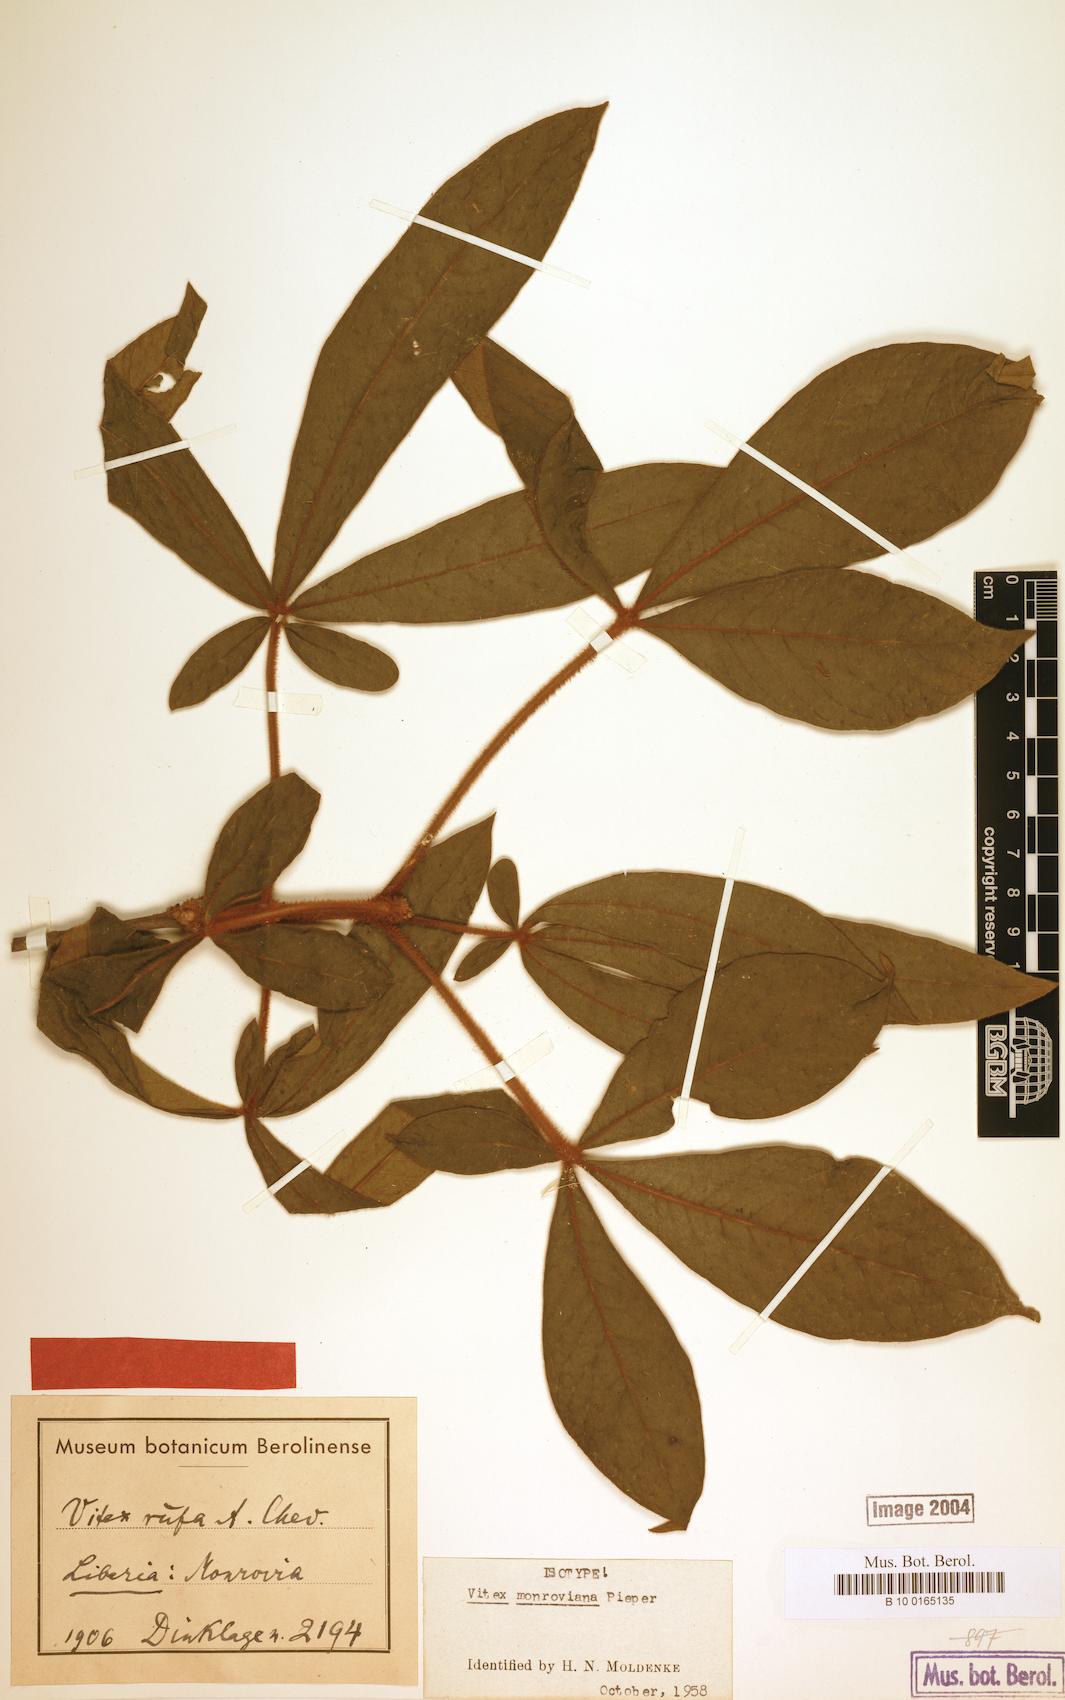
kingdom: Plantae
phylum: Tracheophyta
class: Magnoliopsida
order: Lamiales
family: Lamiaceae
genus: Vitex
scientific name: Vitex congolensis
